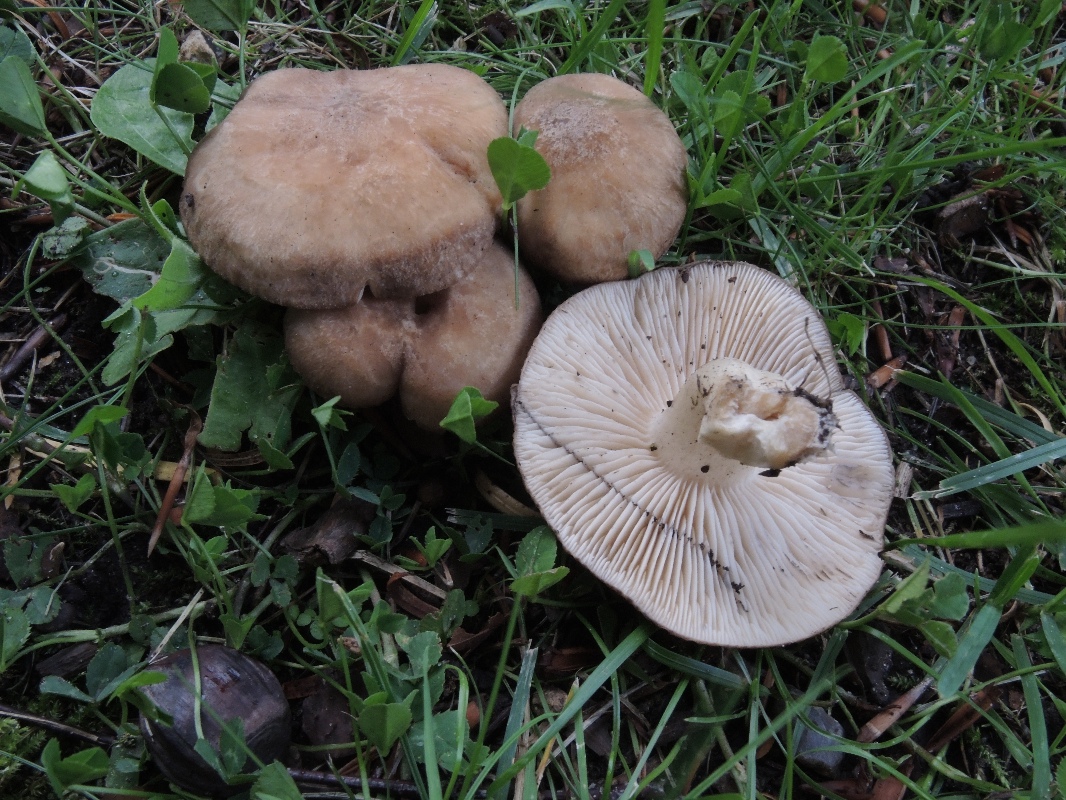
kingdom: Fungi
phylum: Basidiomycota
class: Agaricomycetes
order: Agaricales
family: Lyophyllaceae
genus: Lyophyllum
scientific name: Lyophyllum paelochroum
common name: blånende gråblad
